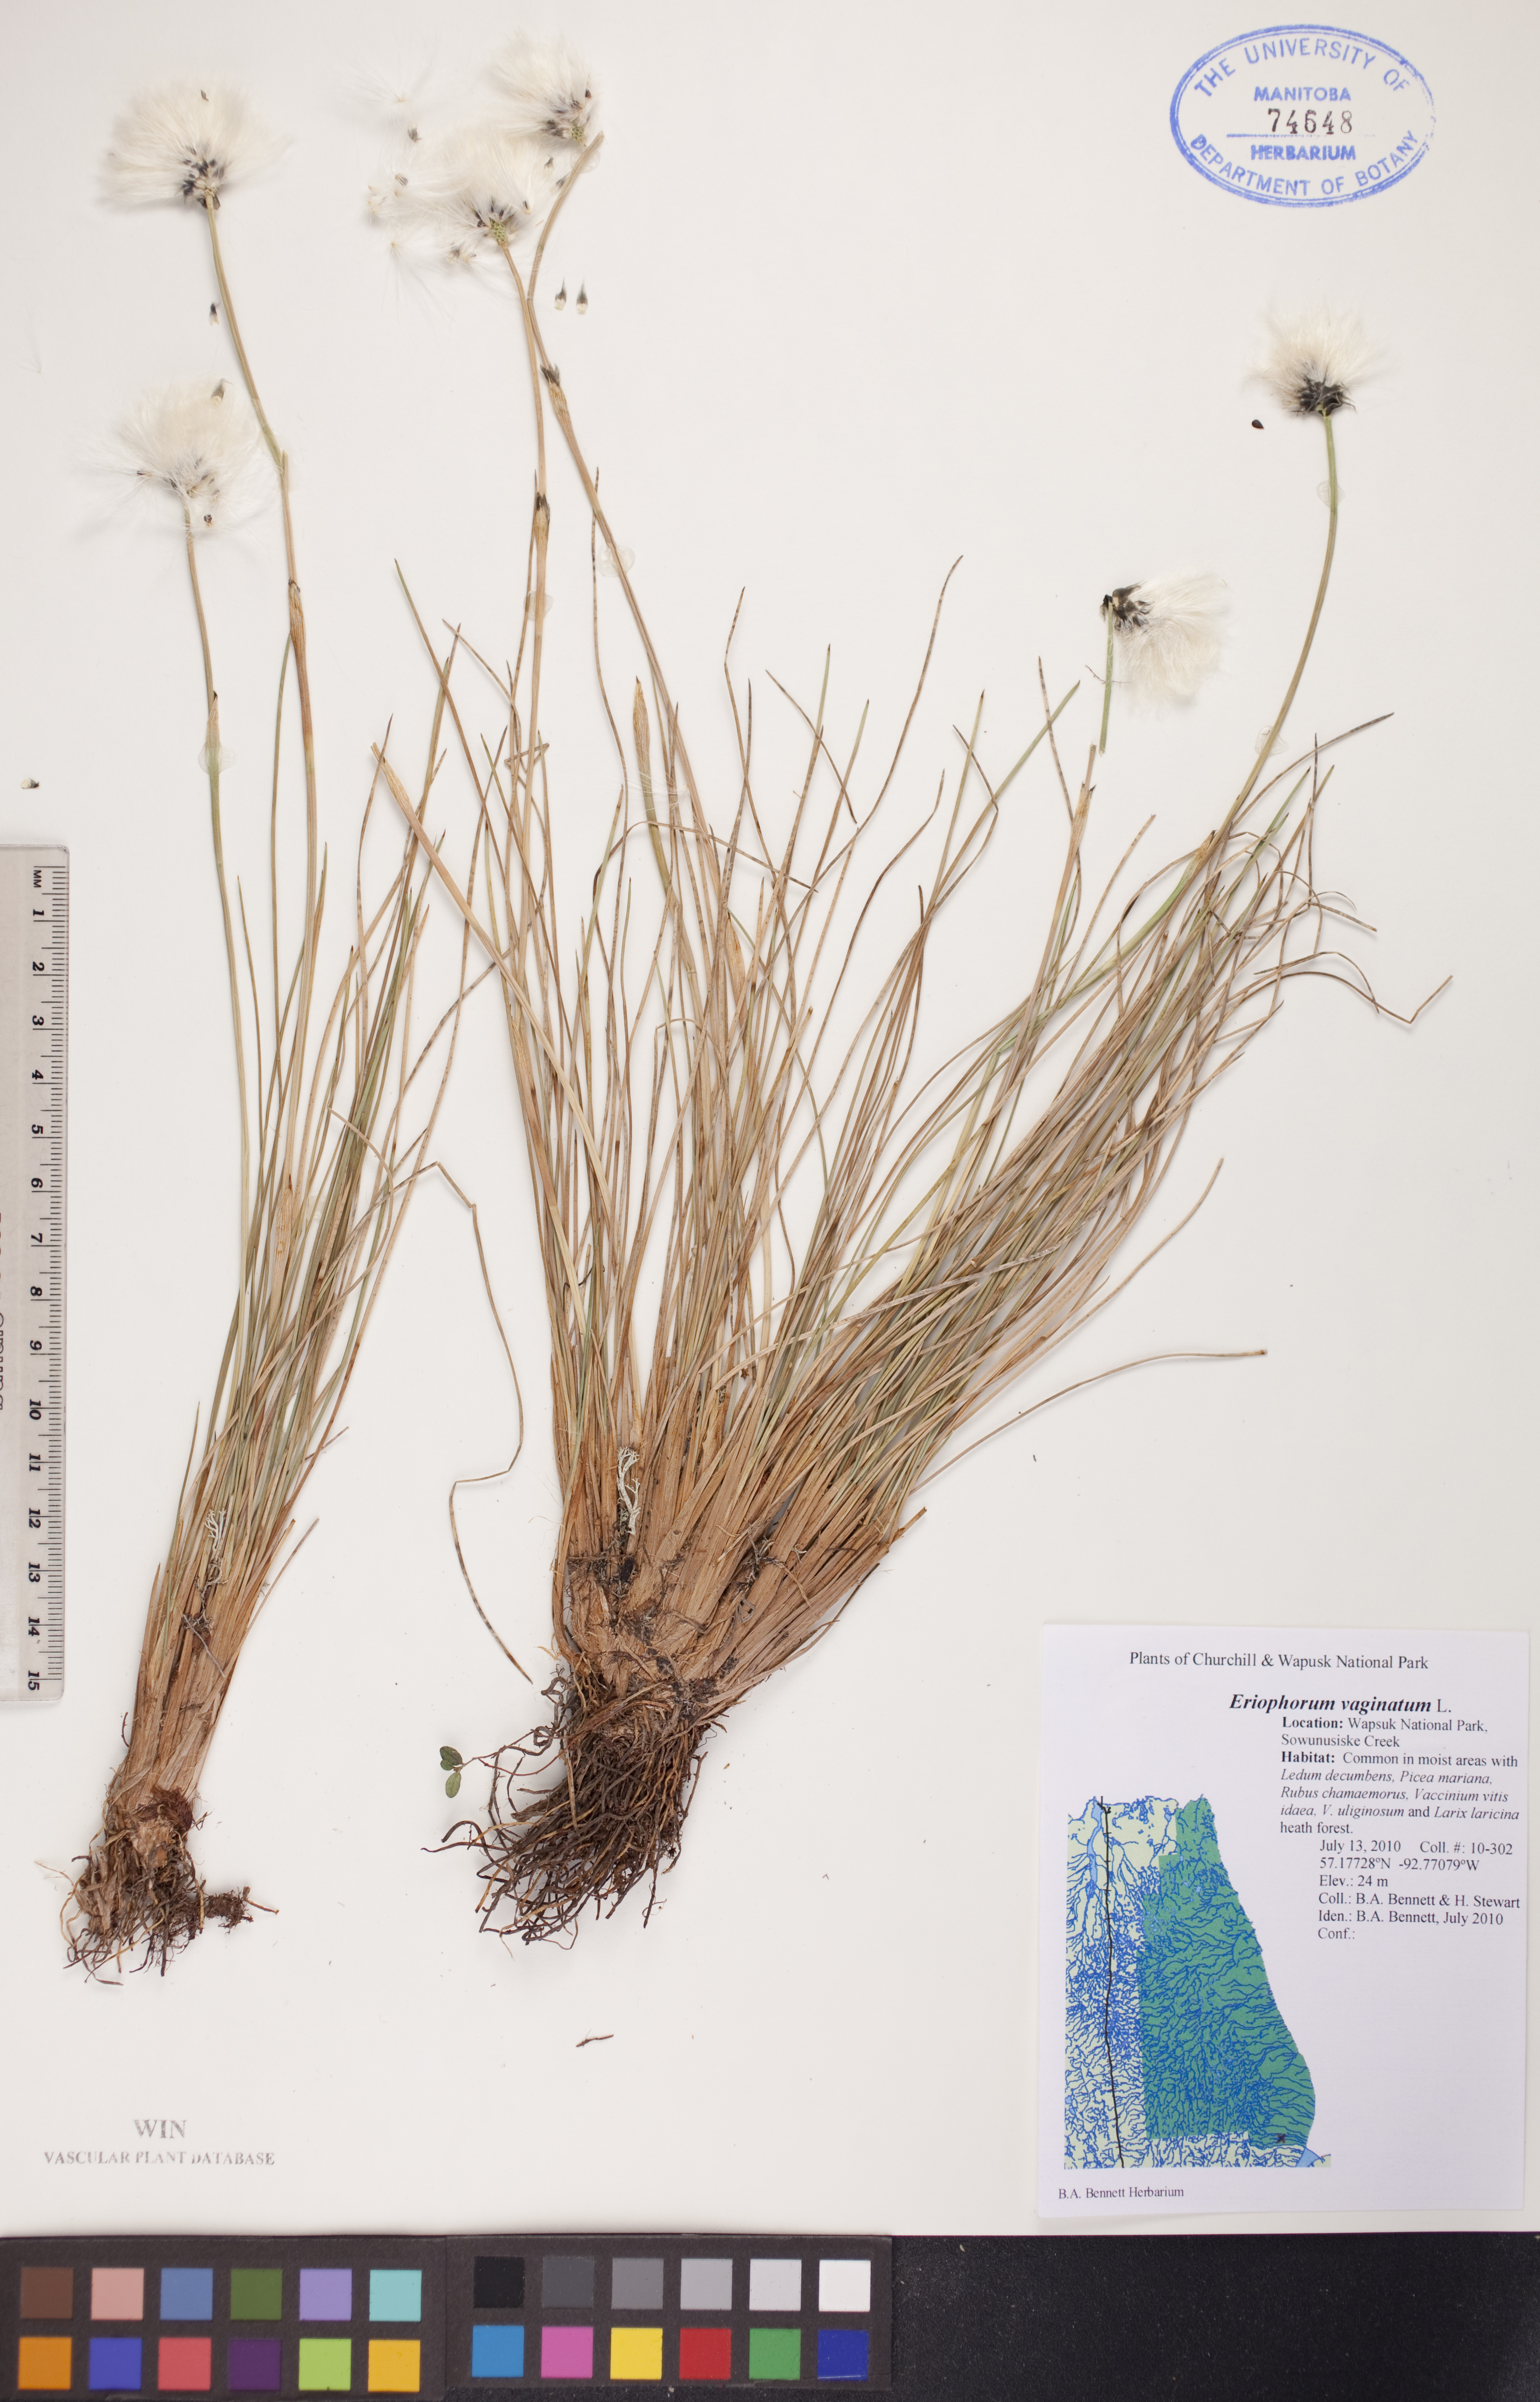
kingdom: Plantae
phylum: Tracheophyta
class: Liliopsida
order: Poales
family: Cyperaceae
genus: Eriophorum
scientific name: Eriophorum vaginatum
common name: Hare's-tail cottongrass
